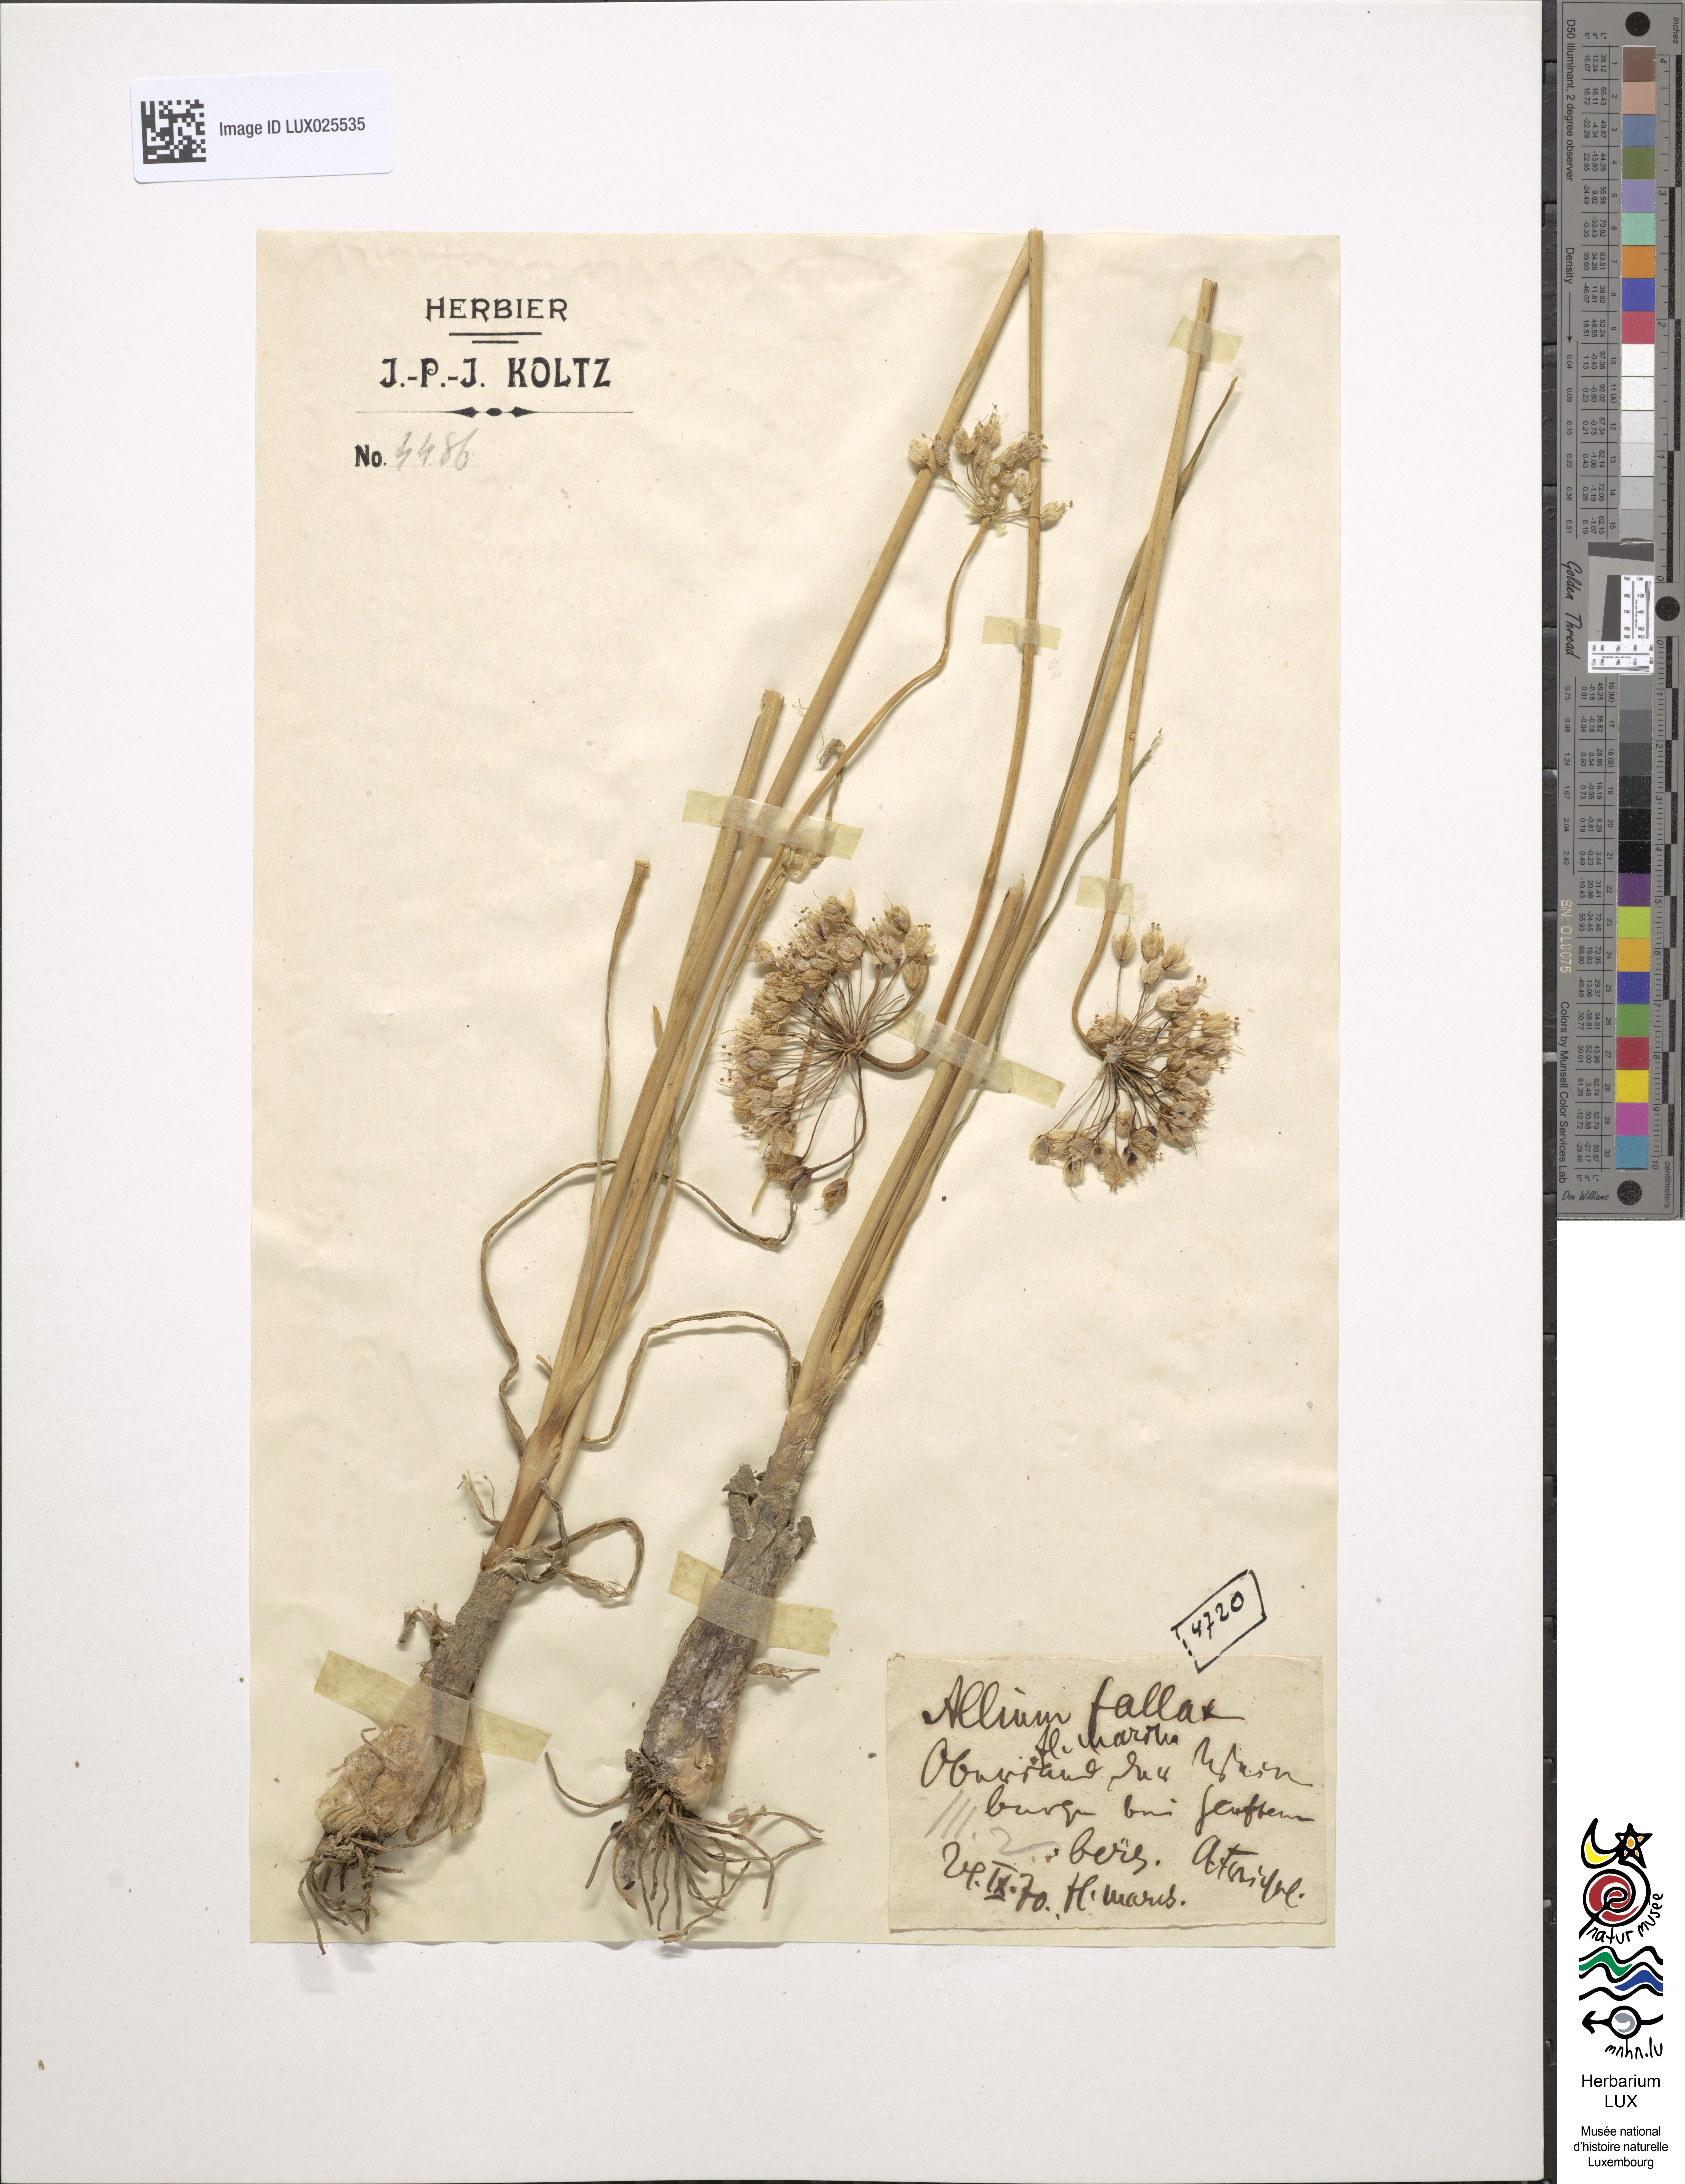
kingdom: Plantae
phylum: Tracheophyta
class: Liliopsida
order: Asparagales
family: Amaryllidaceae
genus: Allium
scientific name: Allium lusitanicum
